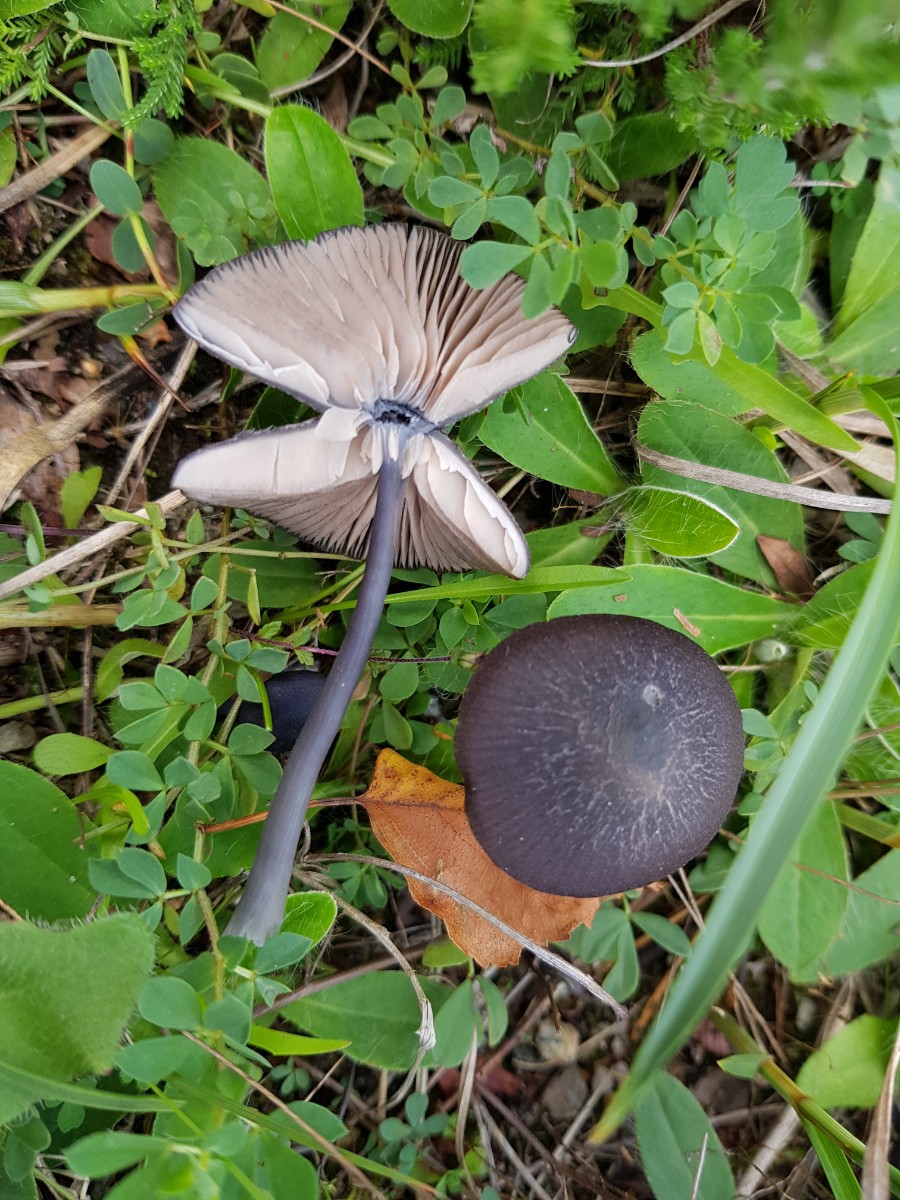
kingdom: Fungi
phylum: Basidiomycota
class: Agaricomycetes
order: Agaricales
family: Entolomataceae
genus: Entoloma
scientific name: Entoloma
